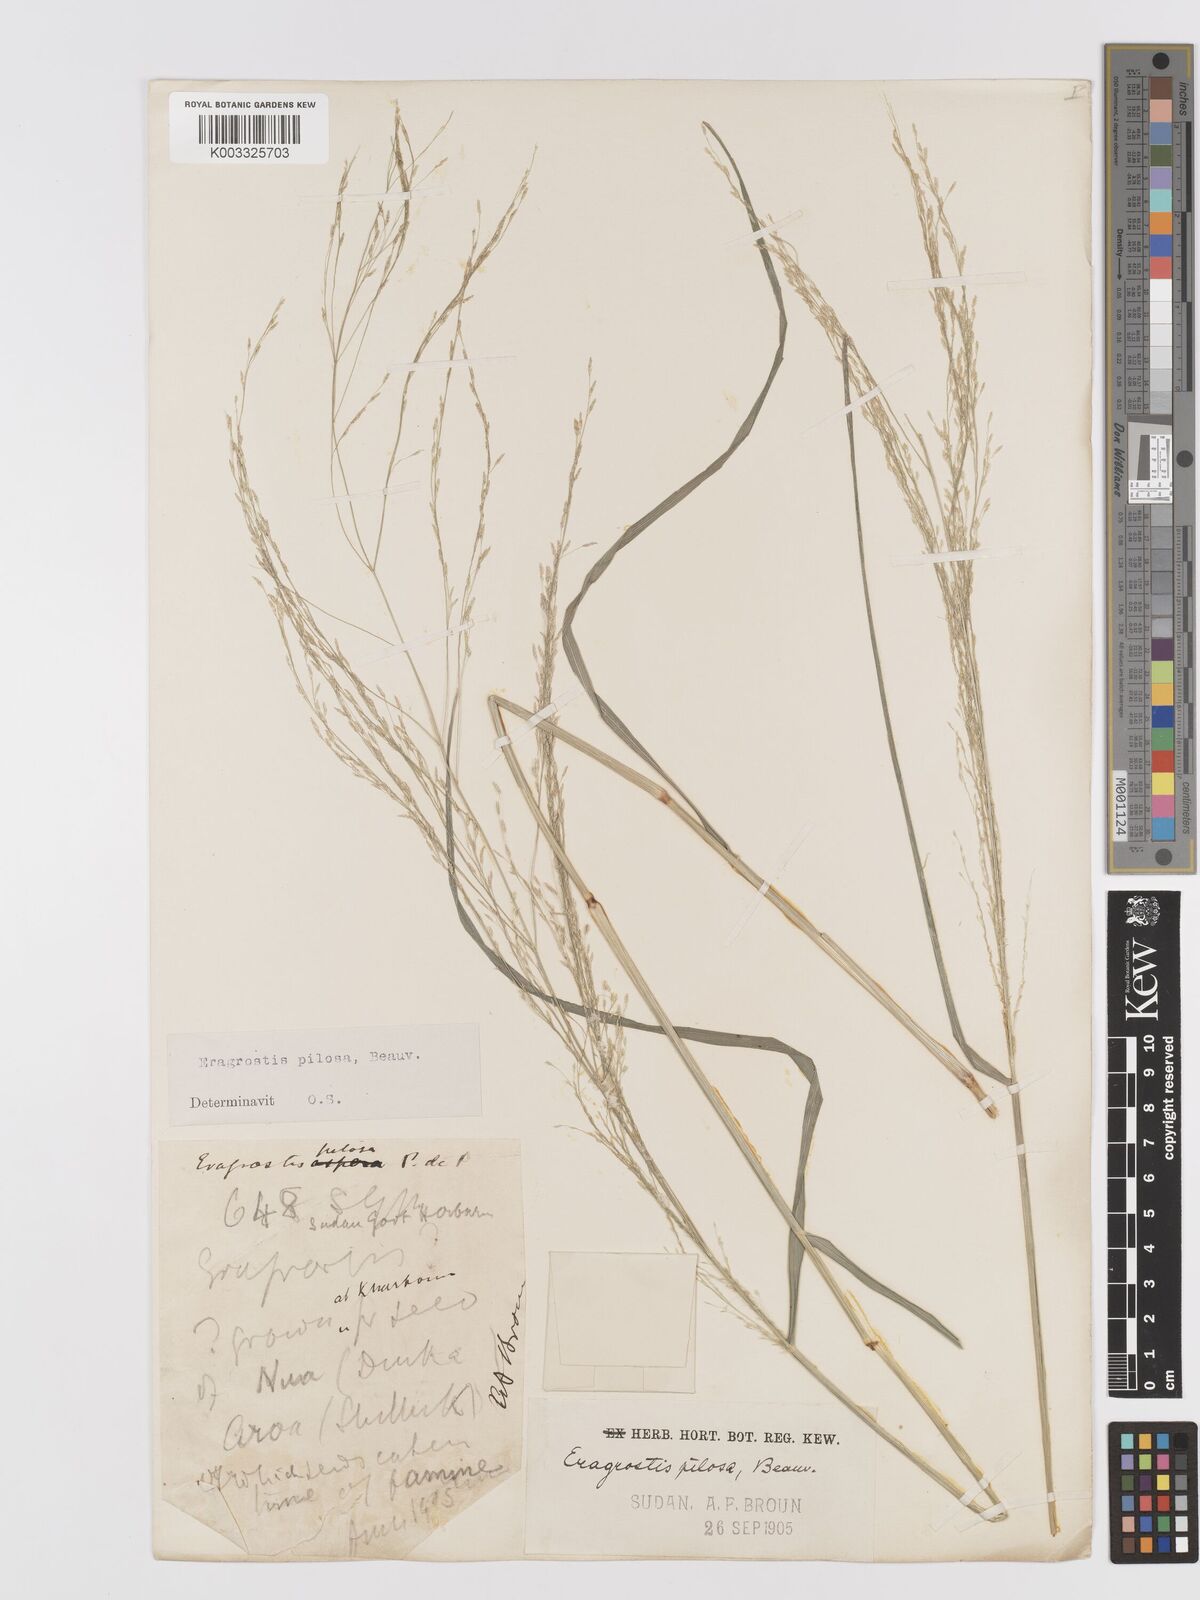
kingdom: Plantae
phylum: Tracheophyta
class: Liliopsida
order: Poales
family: Poaceae
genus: Eragrostis
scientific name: Eragrostis pilosa
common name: Indian lovegrass
